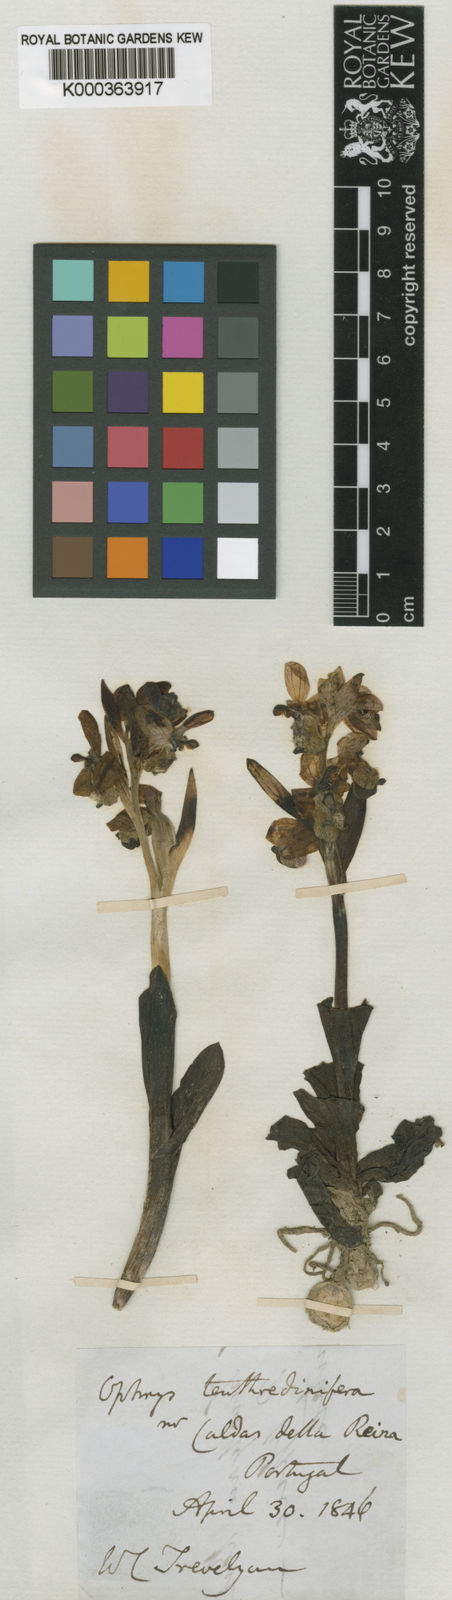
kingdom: Plantae
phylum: Tracheophyta
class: Liliopsida
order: Asparagales
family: Orchidaceae
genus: Ophrys
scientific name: Ophrys tenthredinifera
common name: Sawfly orchid
